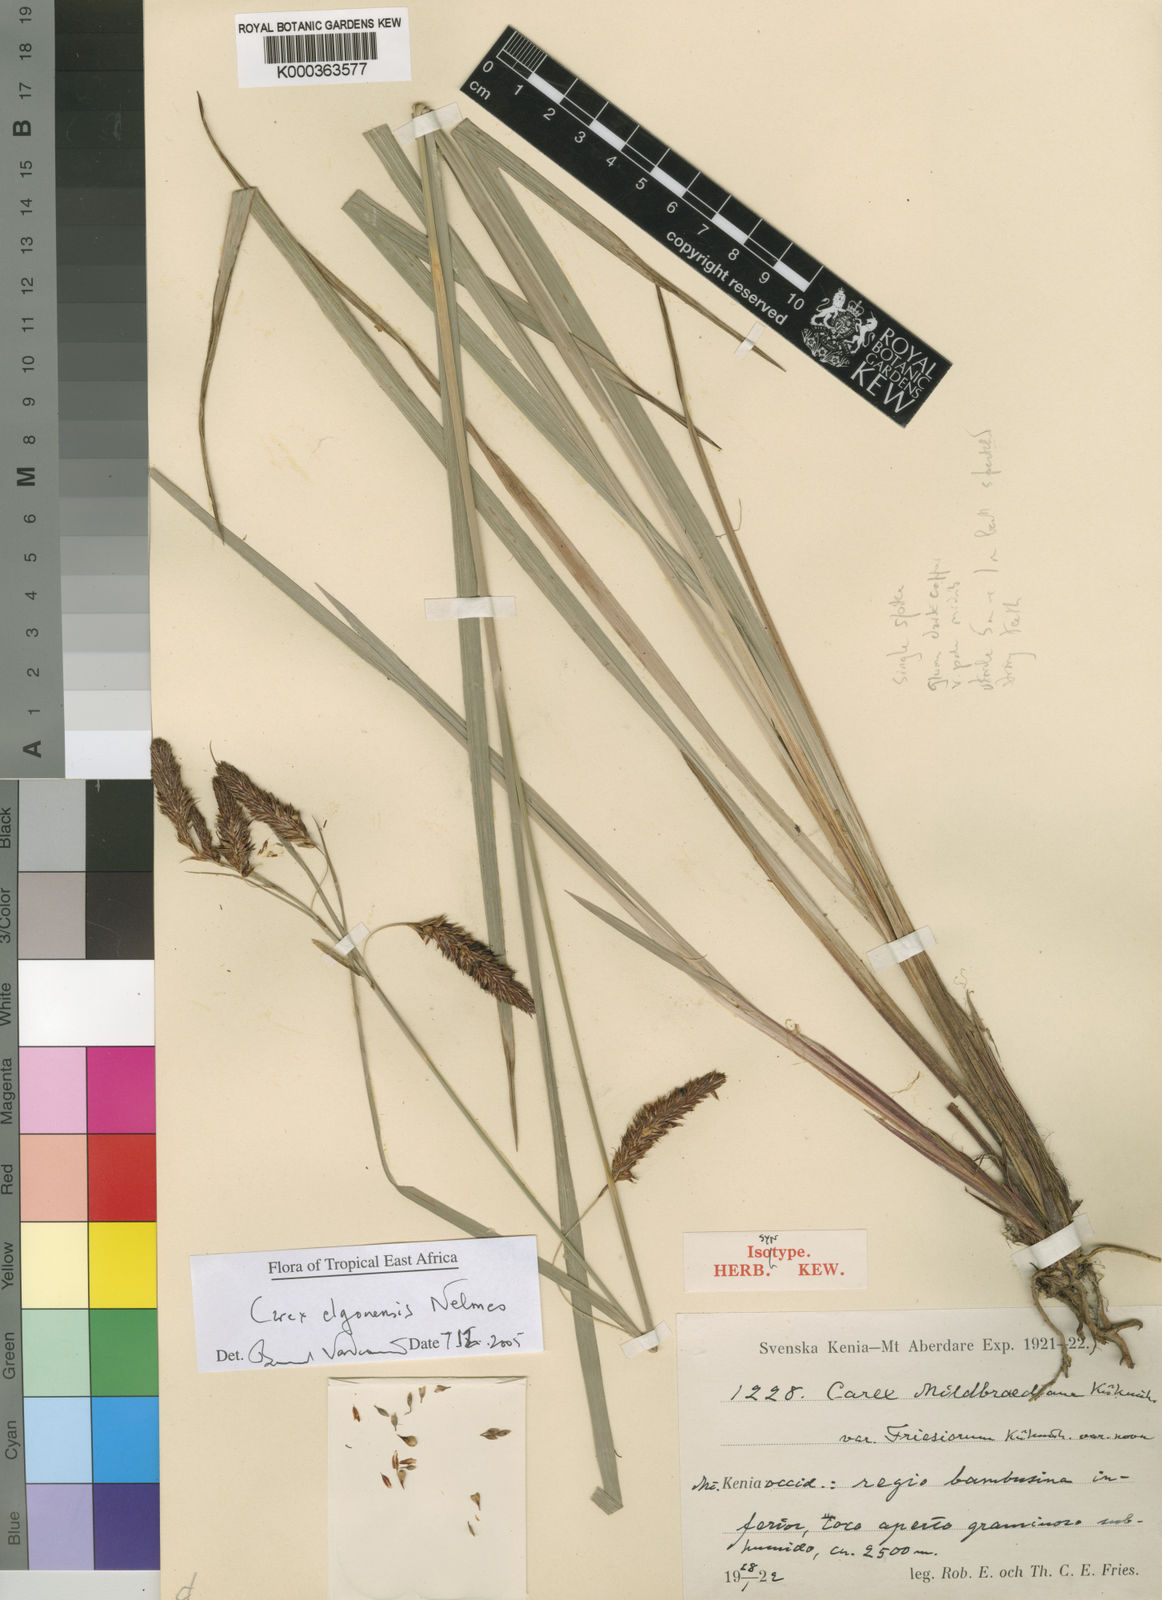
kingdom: Plantae
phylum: Tracheophyta
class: Liliopsida
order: Poales
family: Cyperaceae
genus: Carex
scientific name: Carex elgonensis
